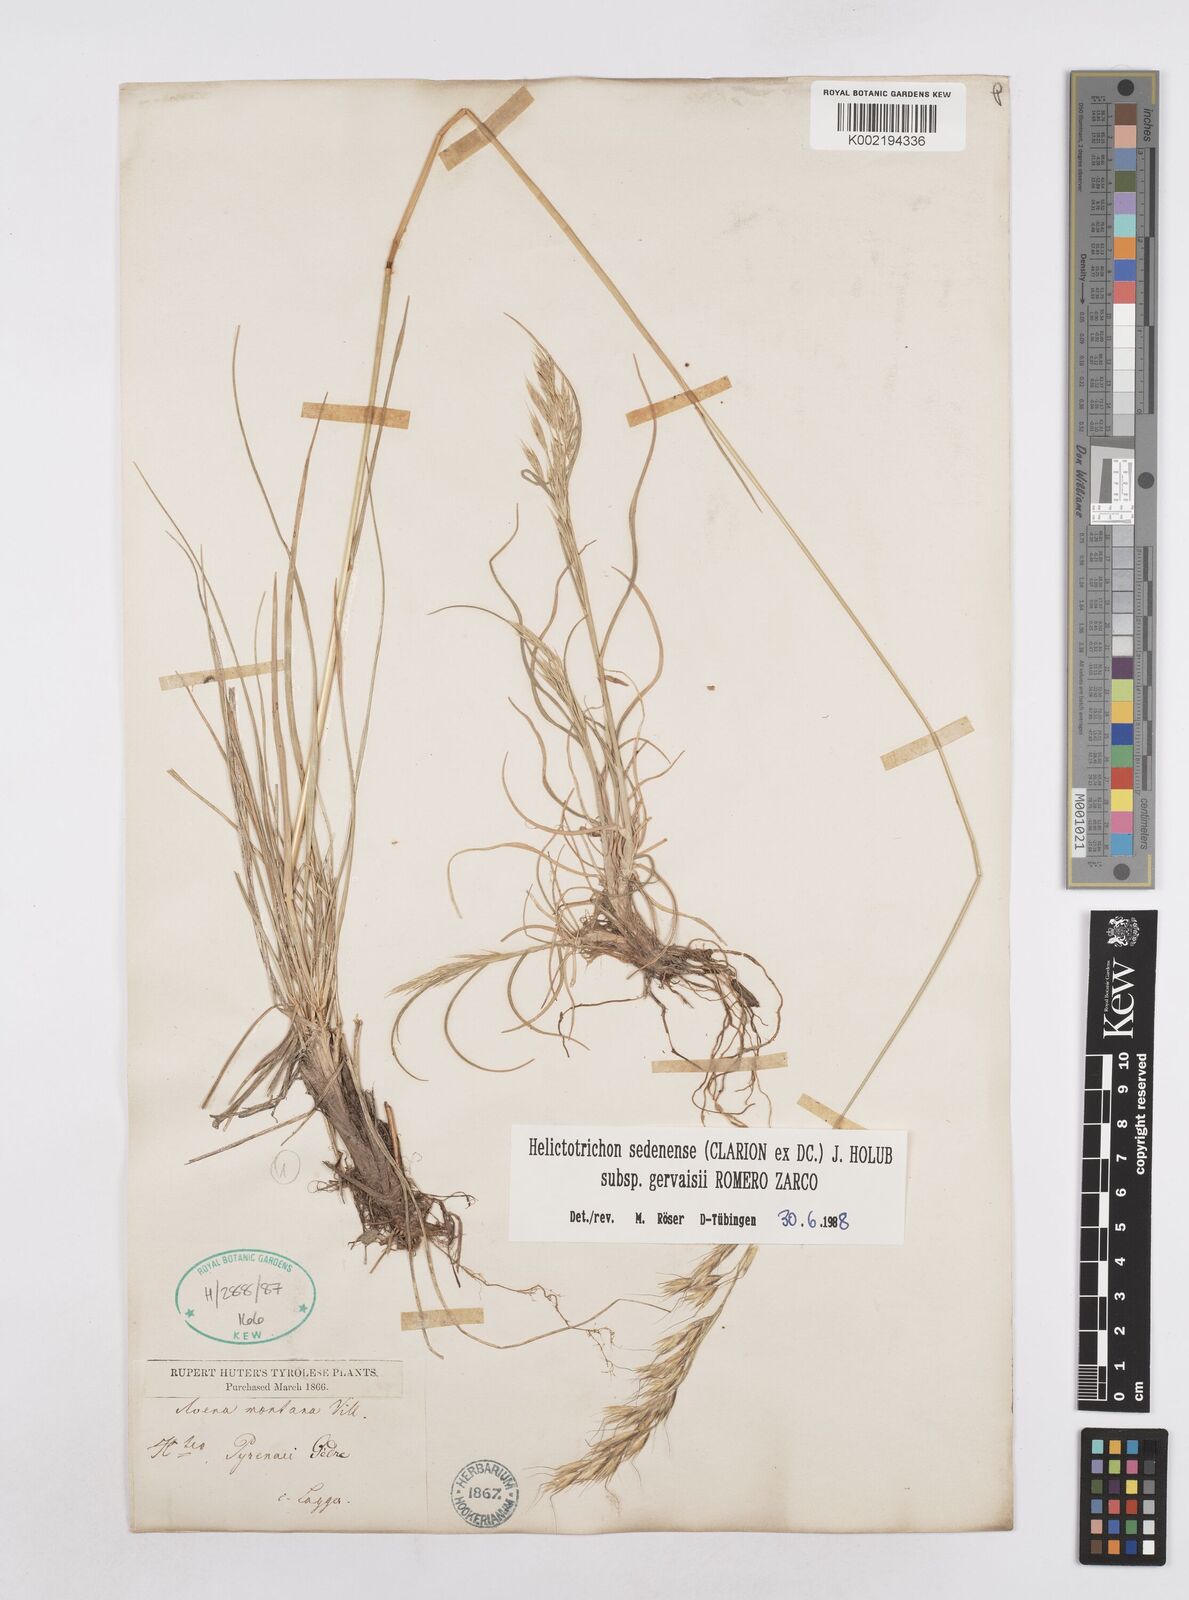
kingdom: Plantae
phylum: Tracheophyta
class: Liliopsida
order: Poales
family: Poaceae
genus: Helictotrichon
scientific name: Helictotrichon sedenense
